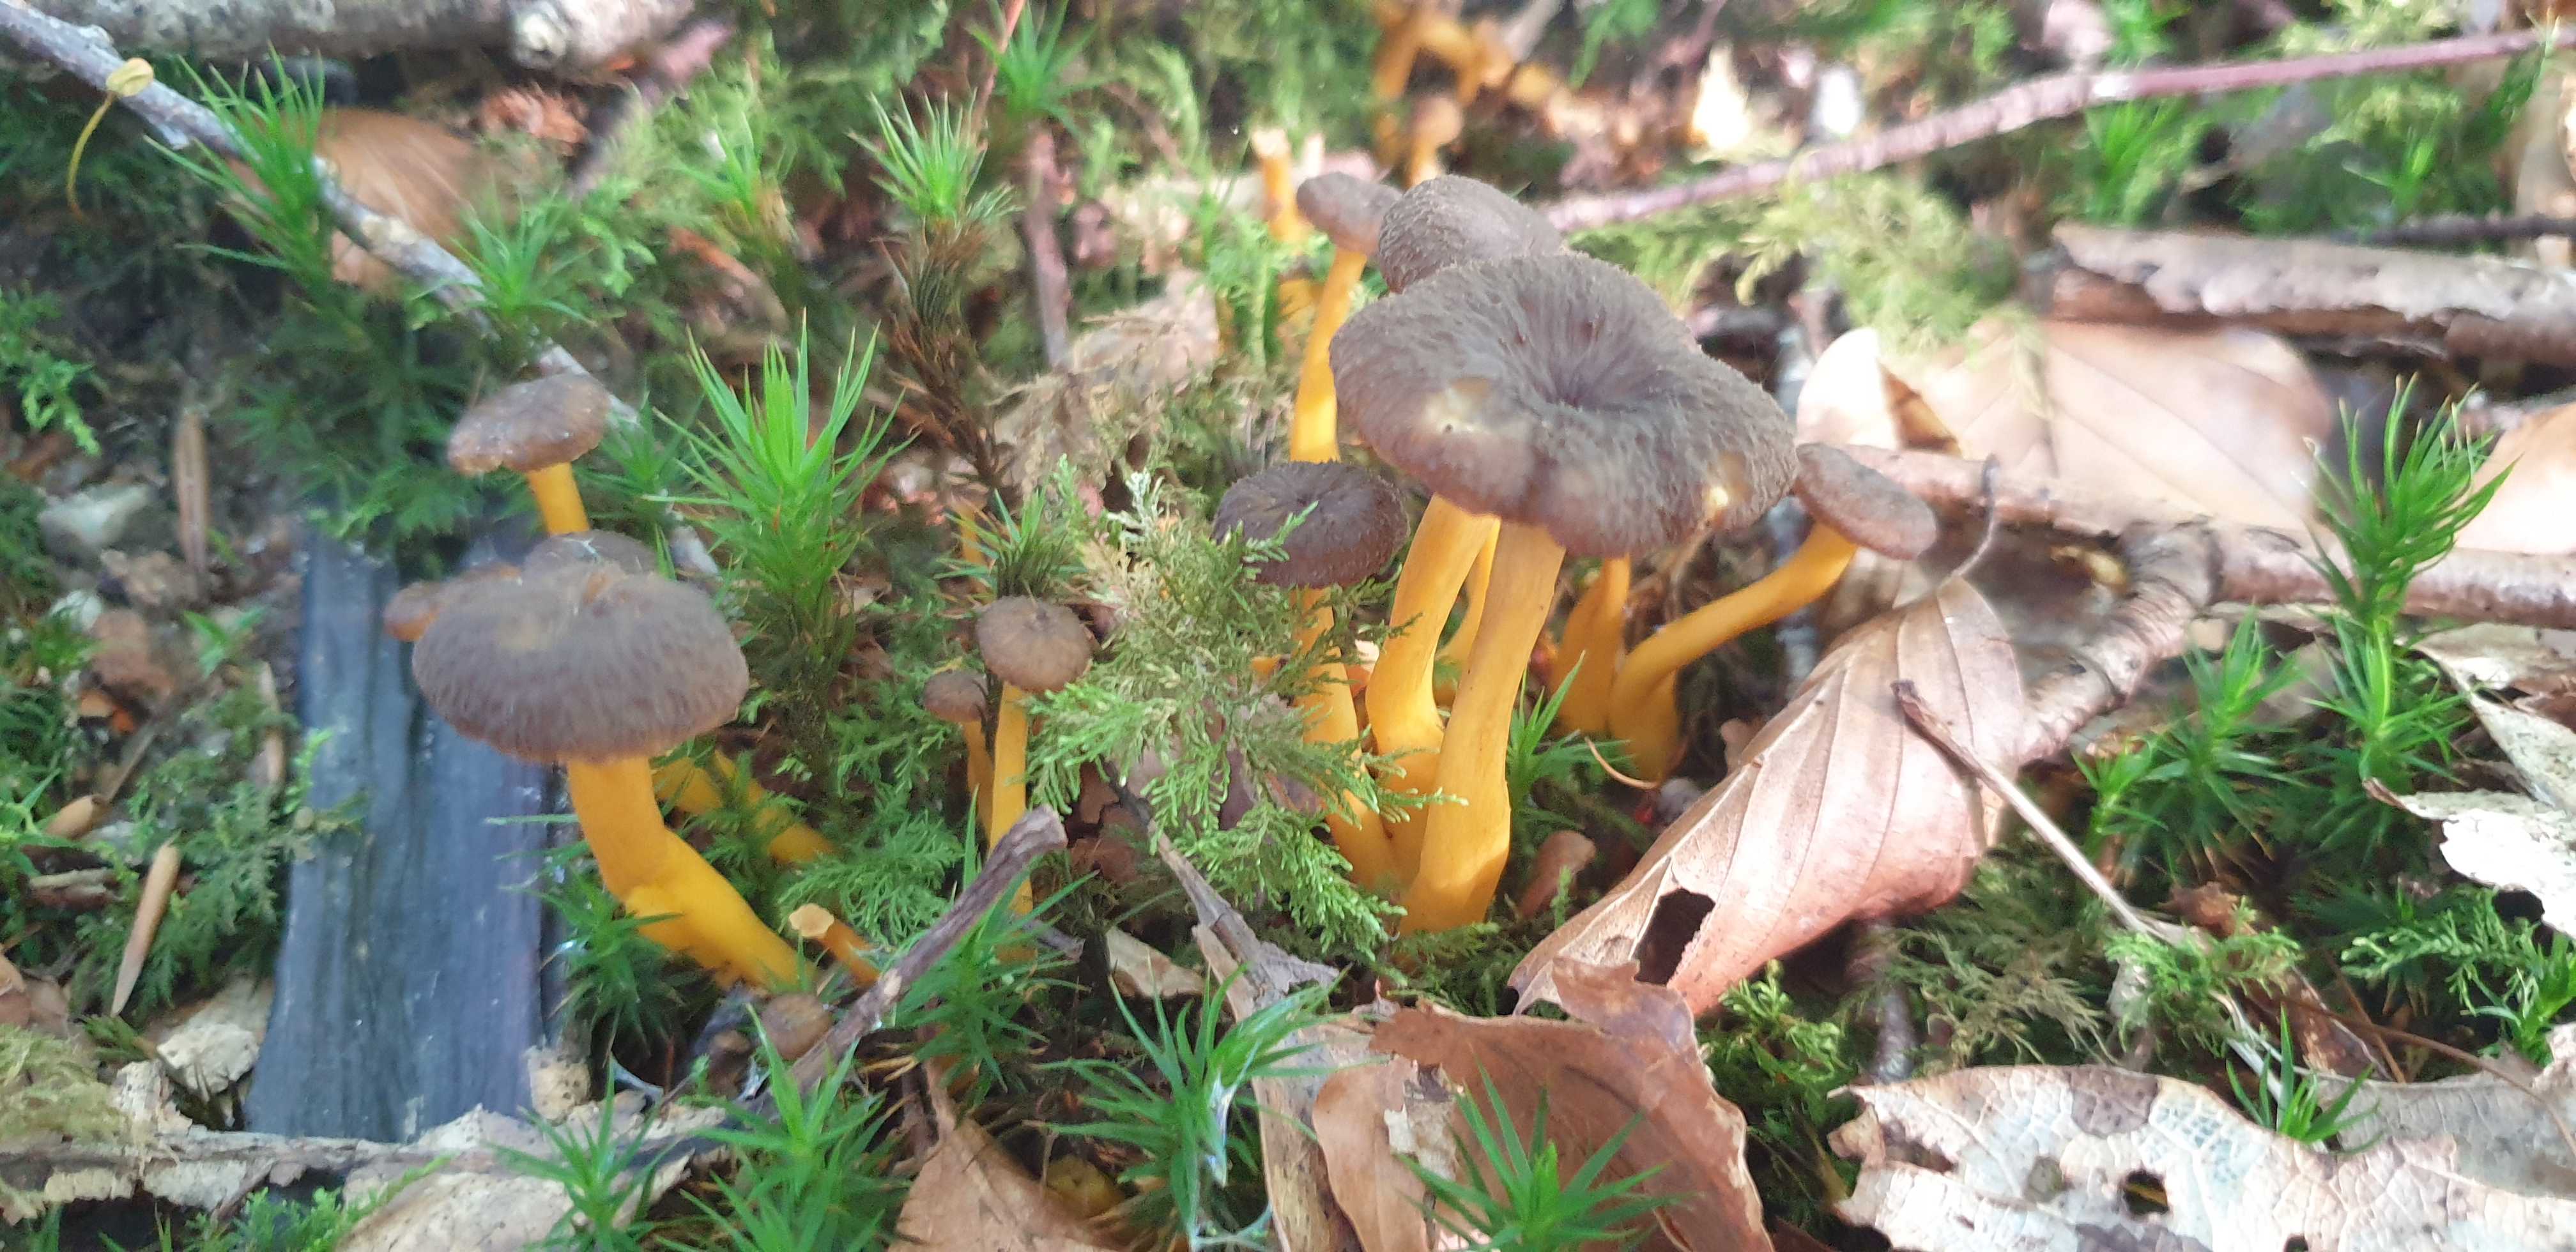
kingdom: Fungi
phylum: Basidiomycota
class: Agaricomycetes
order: Cantharellales
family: Hydnaceae
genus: Craterellus
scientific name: Craterellus tubaeformis
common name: tragt-kantarel
